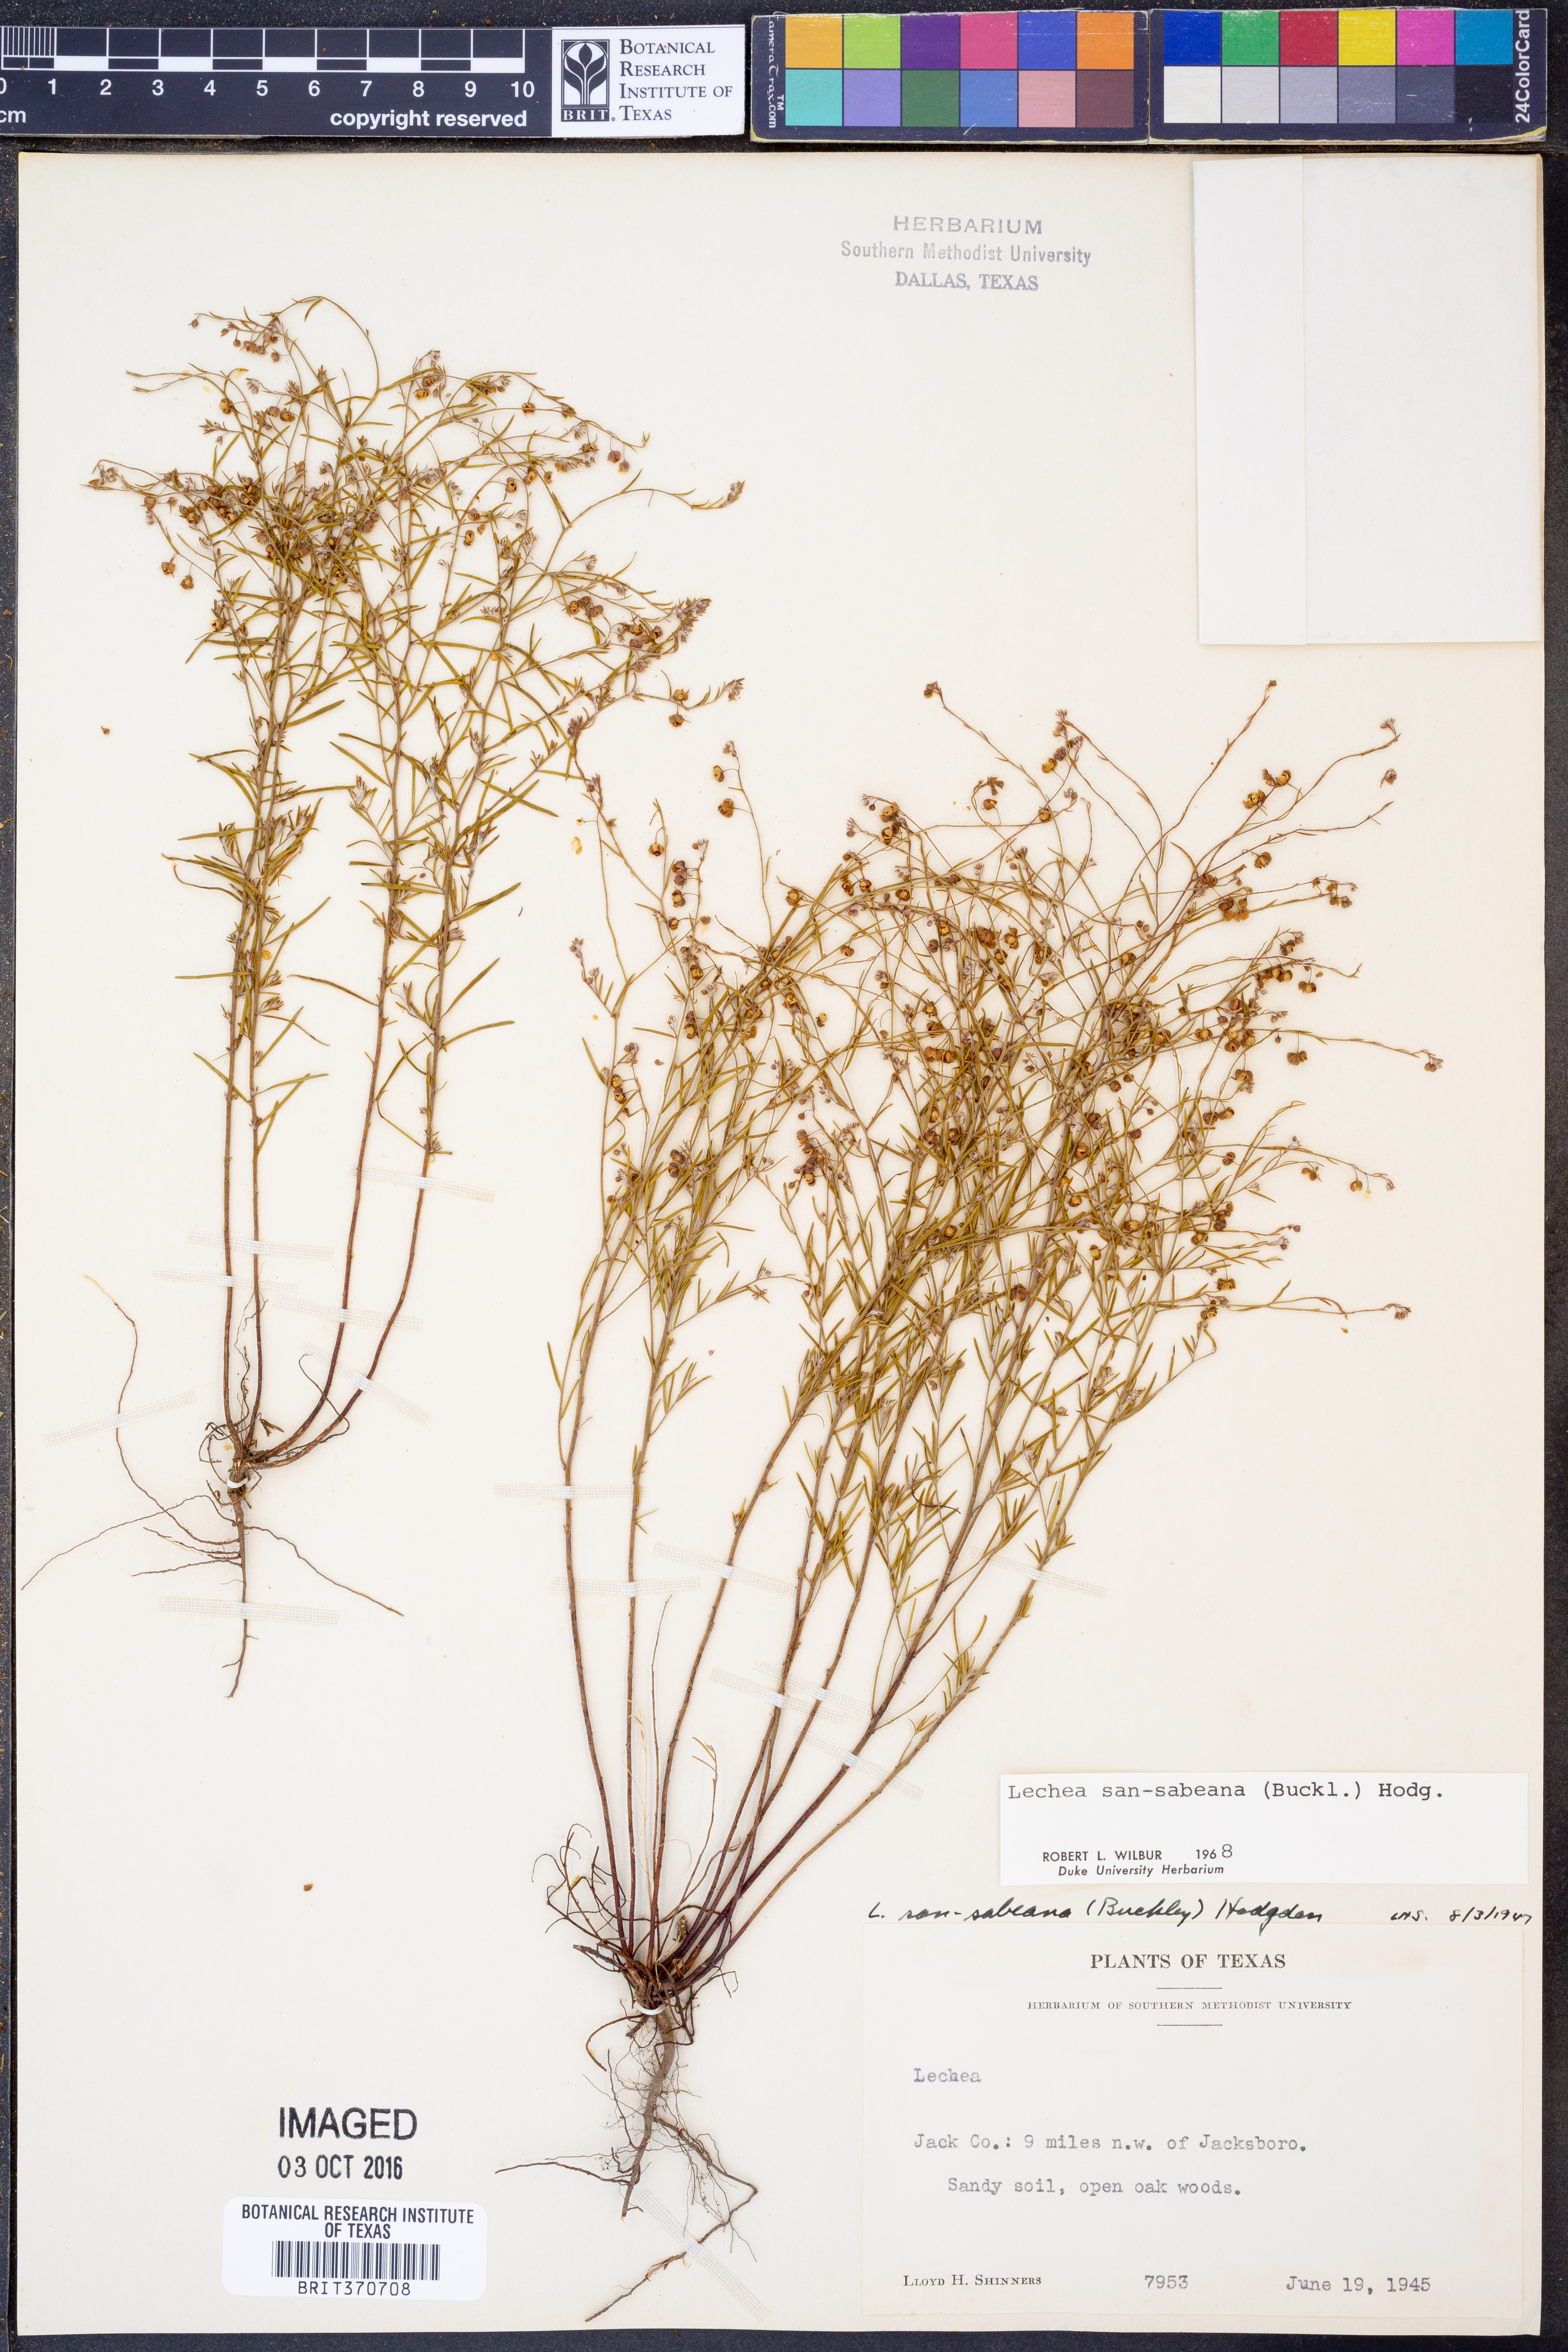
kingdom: Plantae
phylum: Tracheophyta
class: Magnoliopsida
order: Malvales
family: Cistaceae
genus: Lechea
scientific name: Lechea san-sabeana
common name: San saba pinweed
